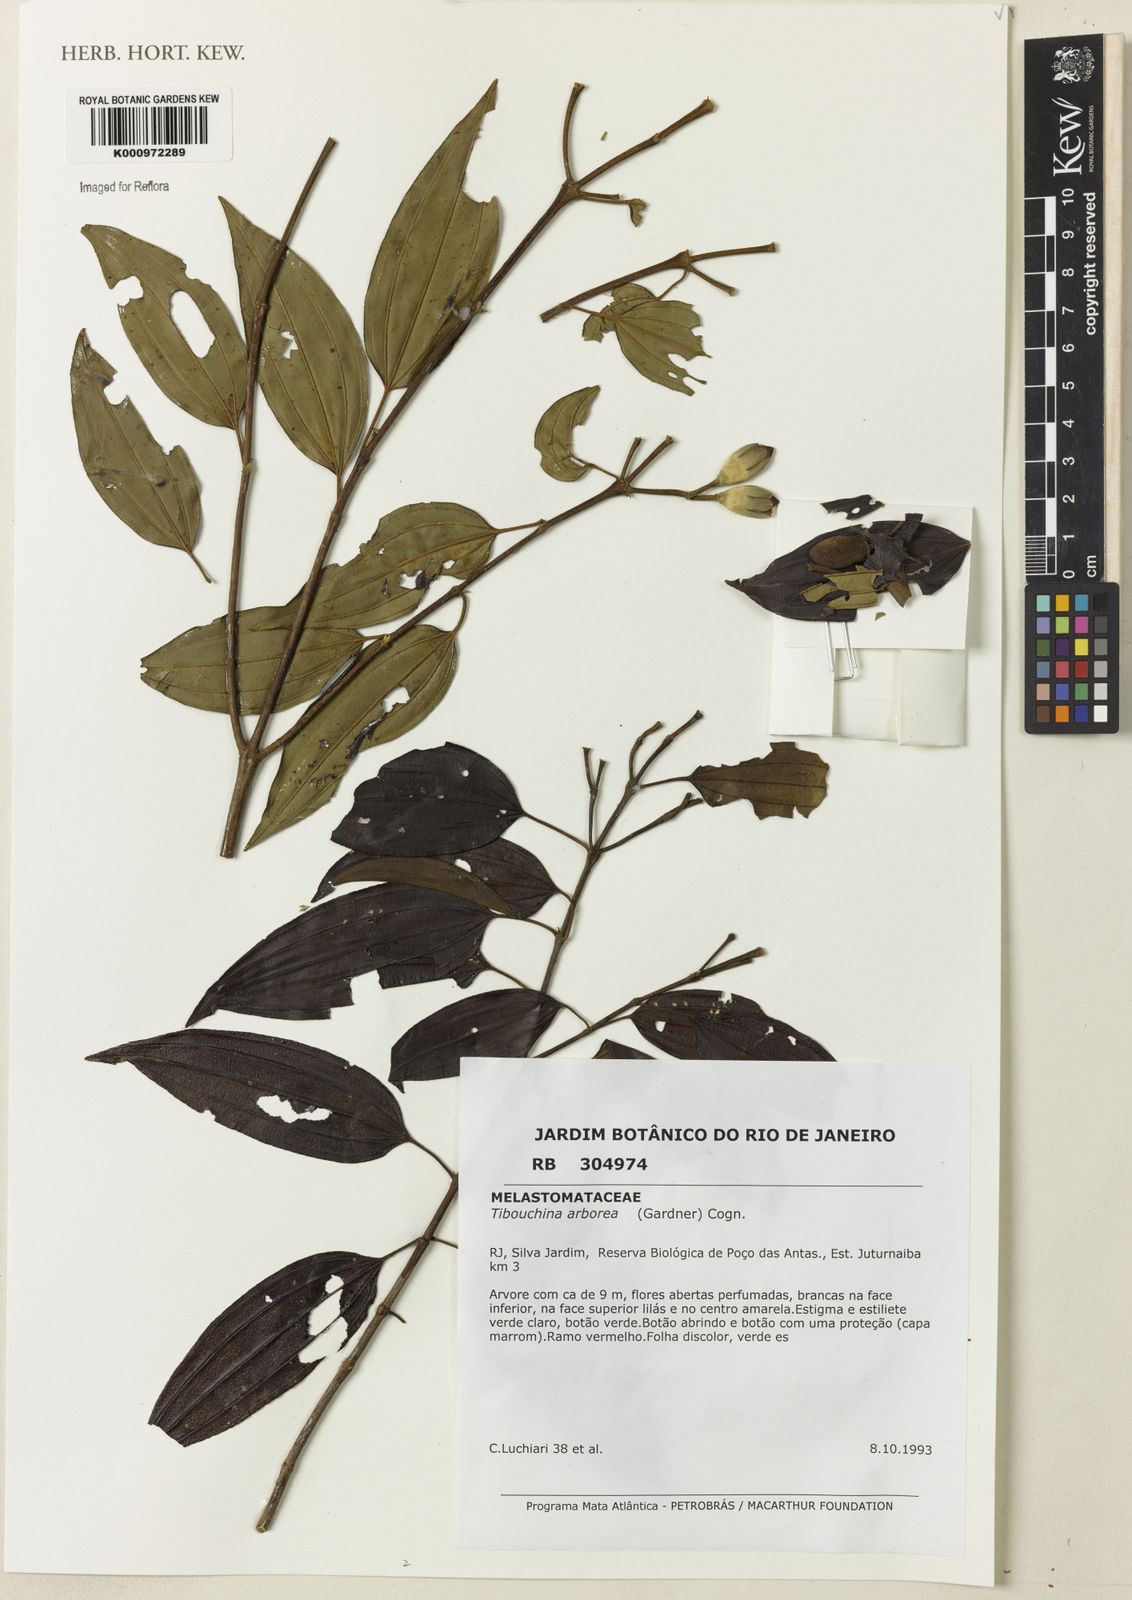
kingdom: Plantae
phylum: Tracheophyta
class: Magnoliopsida
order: Myrtales
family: Melastomataceae
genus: Pleroma
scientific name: Pleroma arboreum
